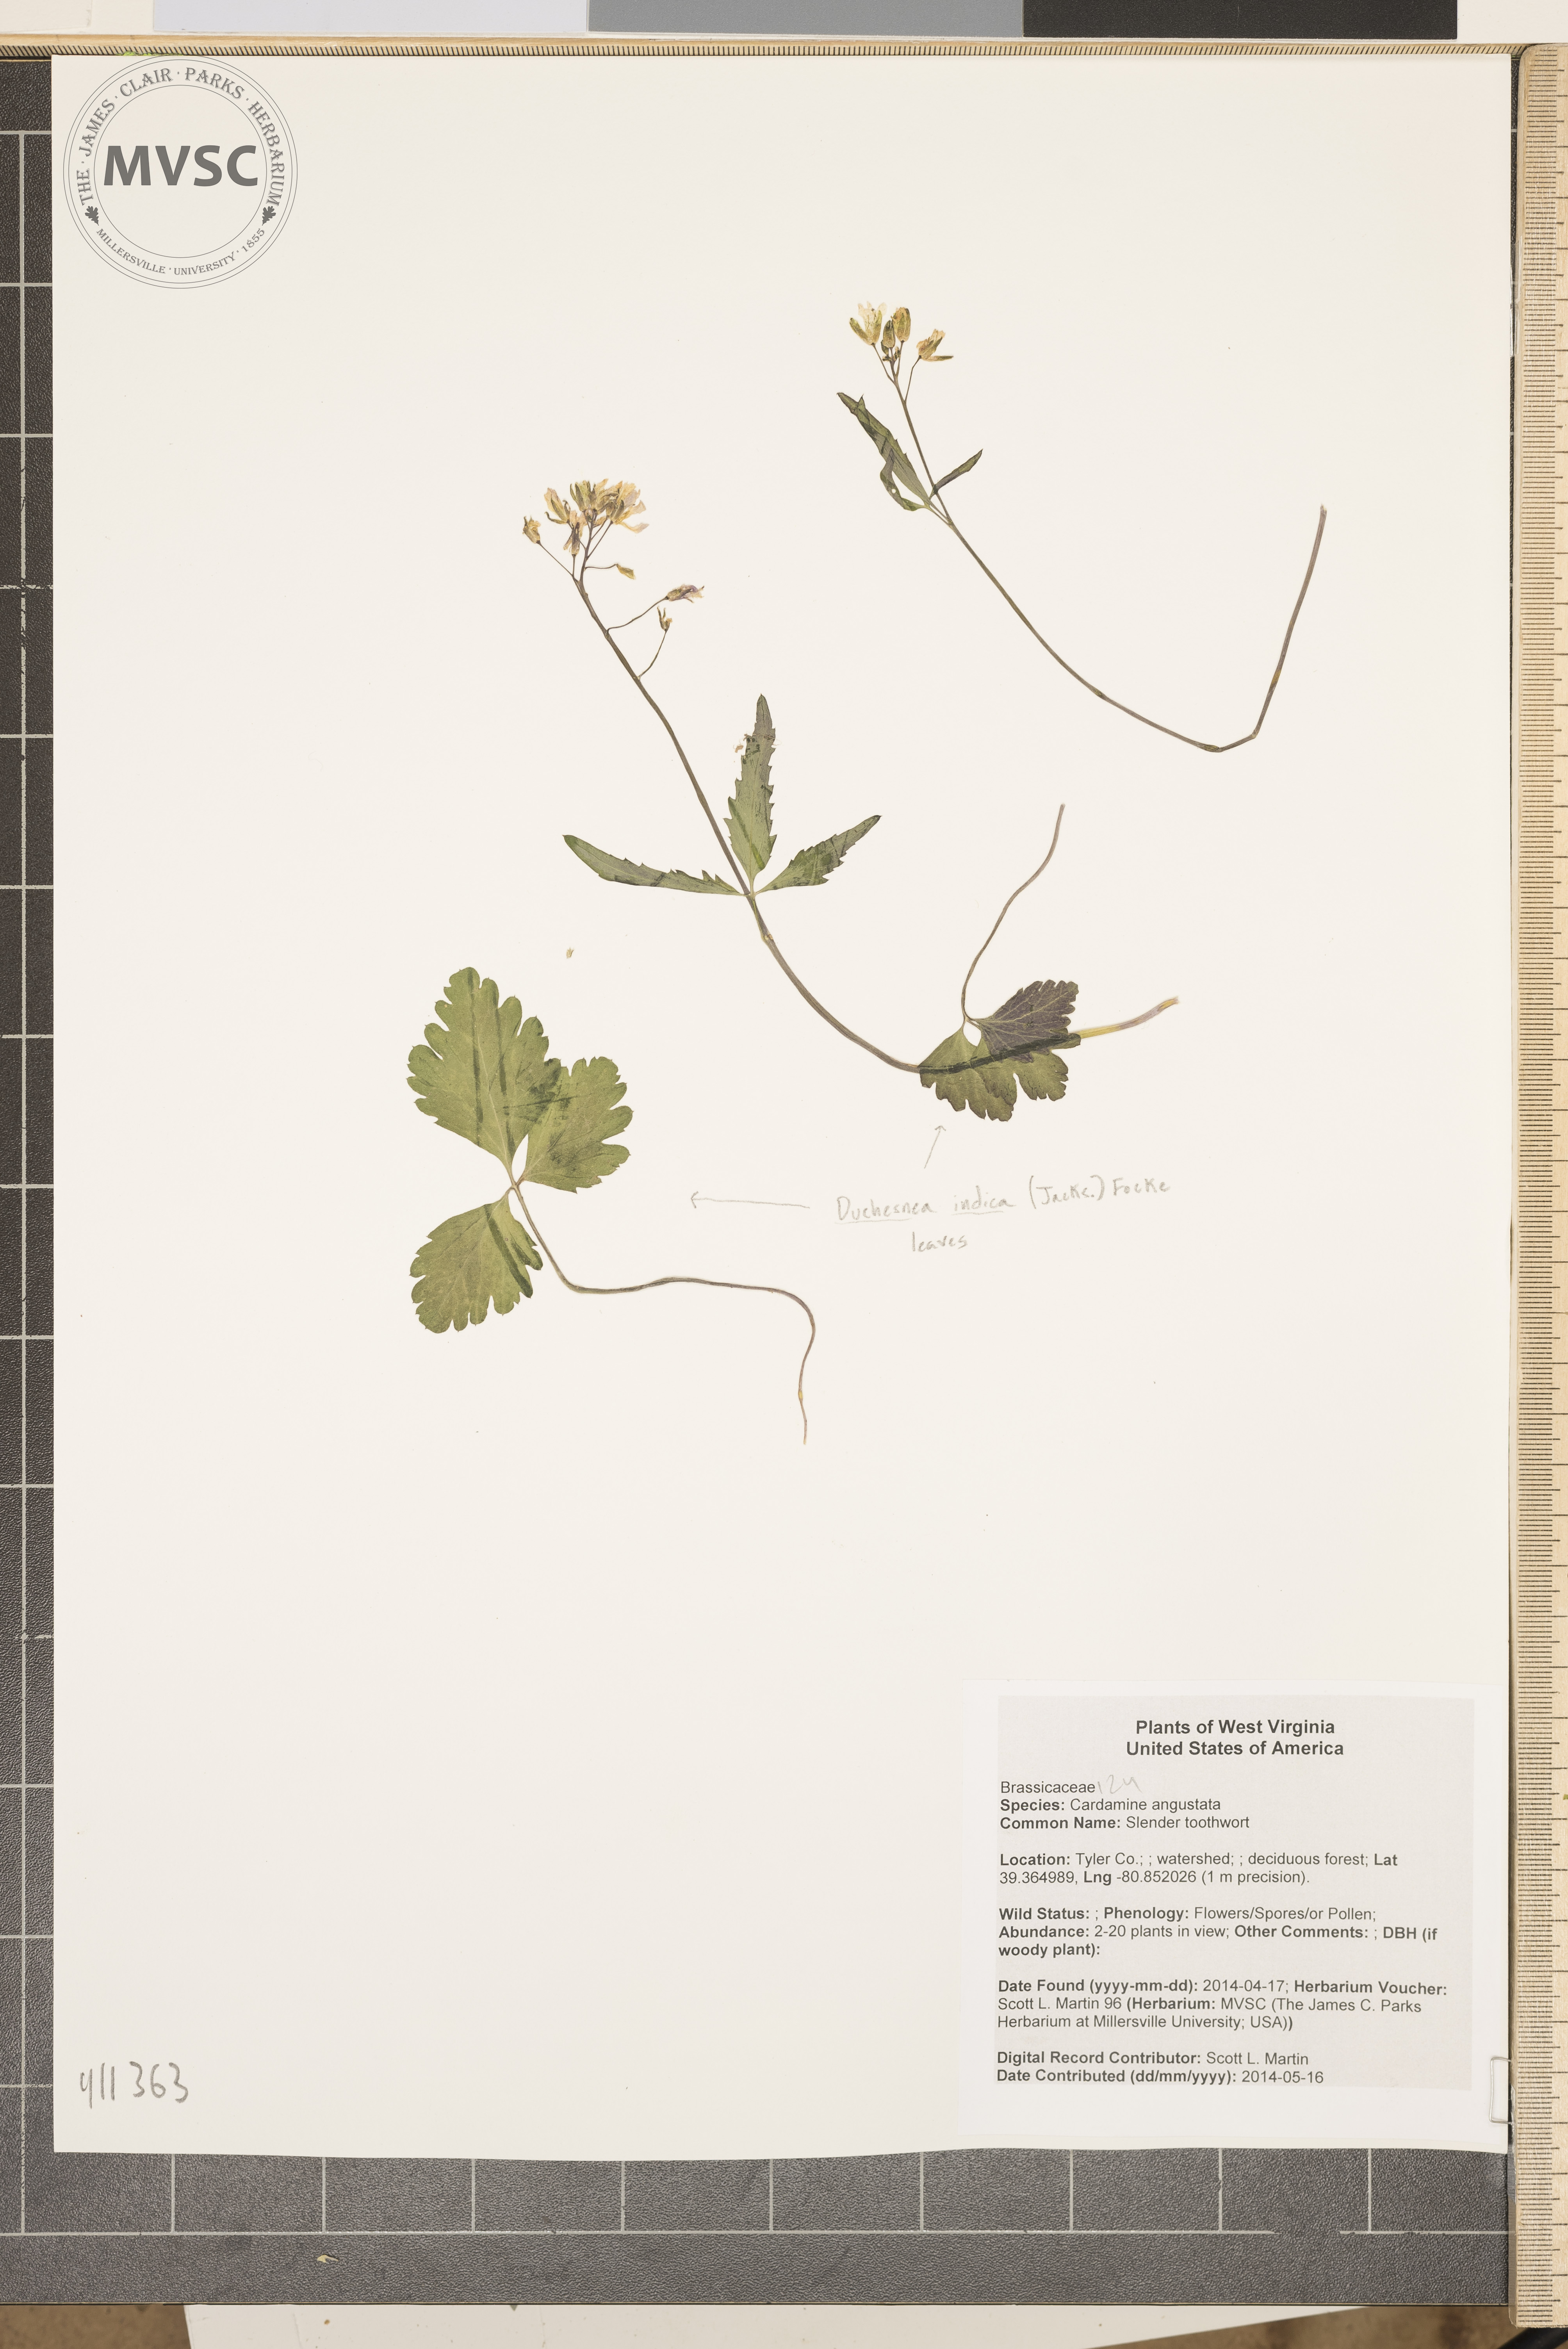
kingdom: Plantae
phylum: Tracheophyta
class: Magnoliopsida
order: Brassicales
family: Brassicaceae
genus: Cardamine
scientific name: Cardamine angustata
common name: Slender toothwort
